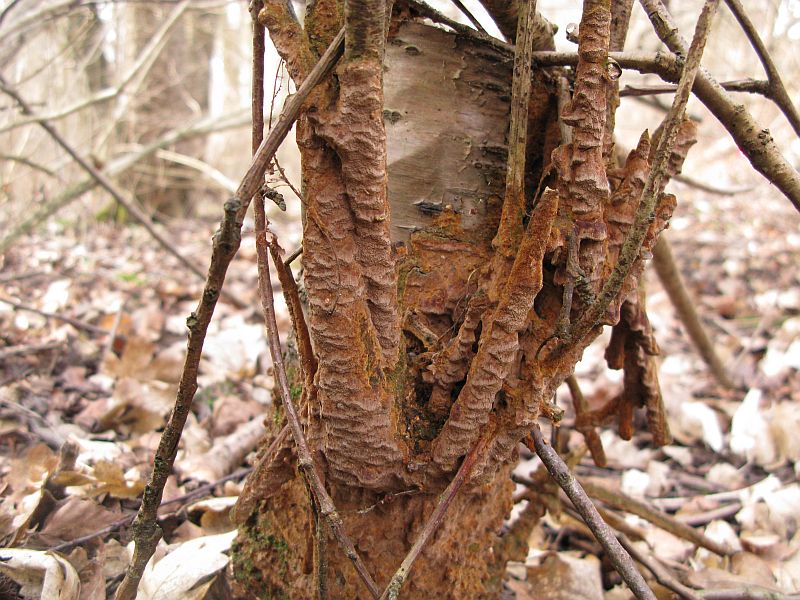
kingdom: Fungi
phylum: Basidiomycota
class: Agaricomycetes
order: Hymenochaetales
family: Hymenochaetaceae
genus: Fuscoporia
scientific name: Fuscoporia ferruginosa
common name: rustbrun ildporesvamp
